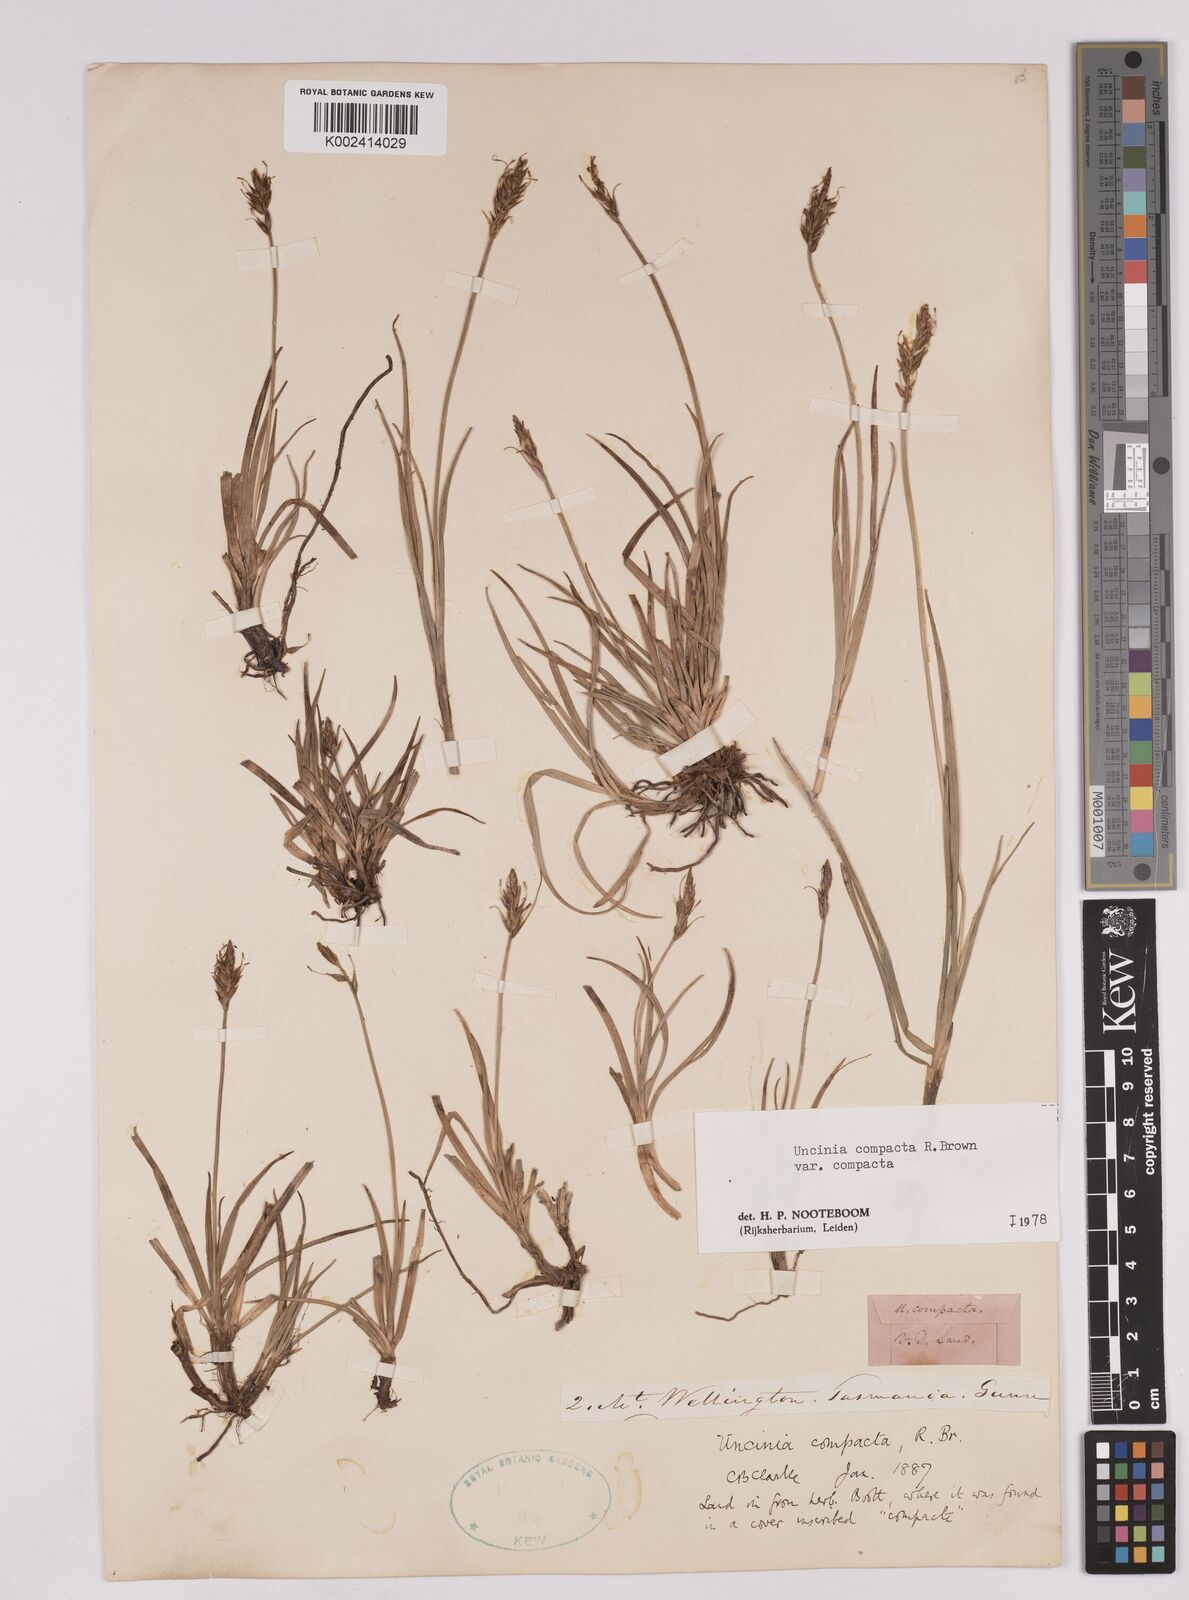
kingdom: Plantae
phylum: Tracheophyta
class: Liliopsida
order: Poales
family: Cyperaceae
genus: Carex
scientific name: Carex austrocompacta
